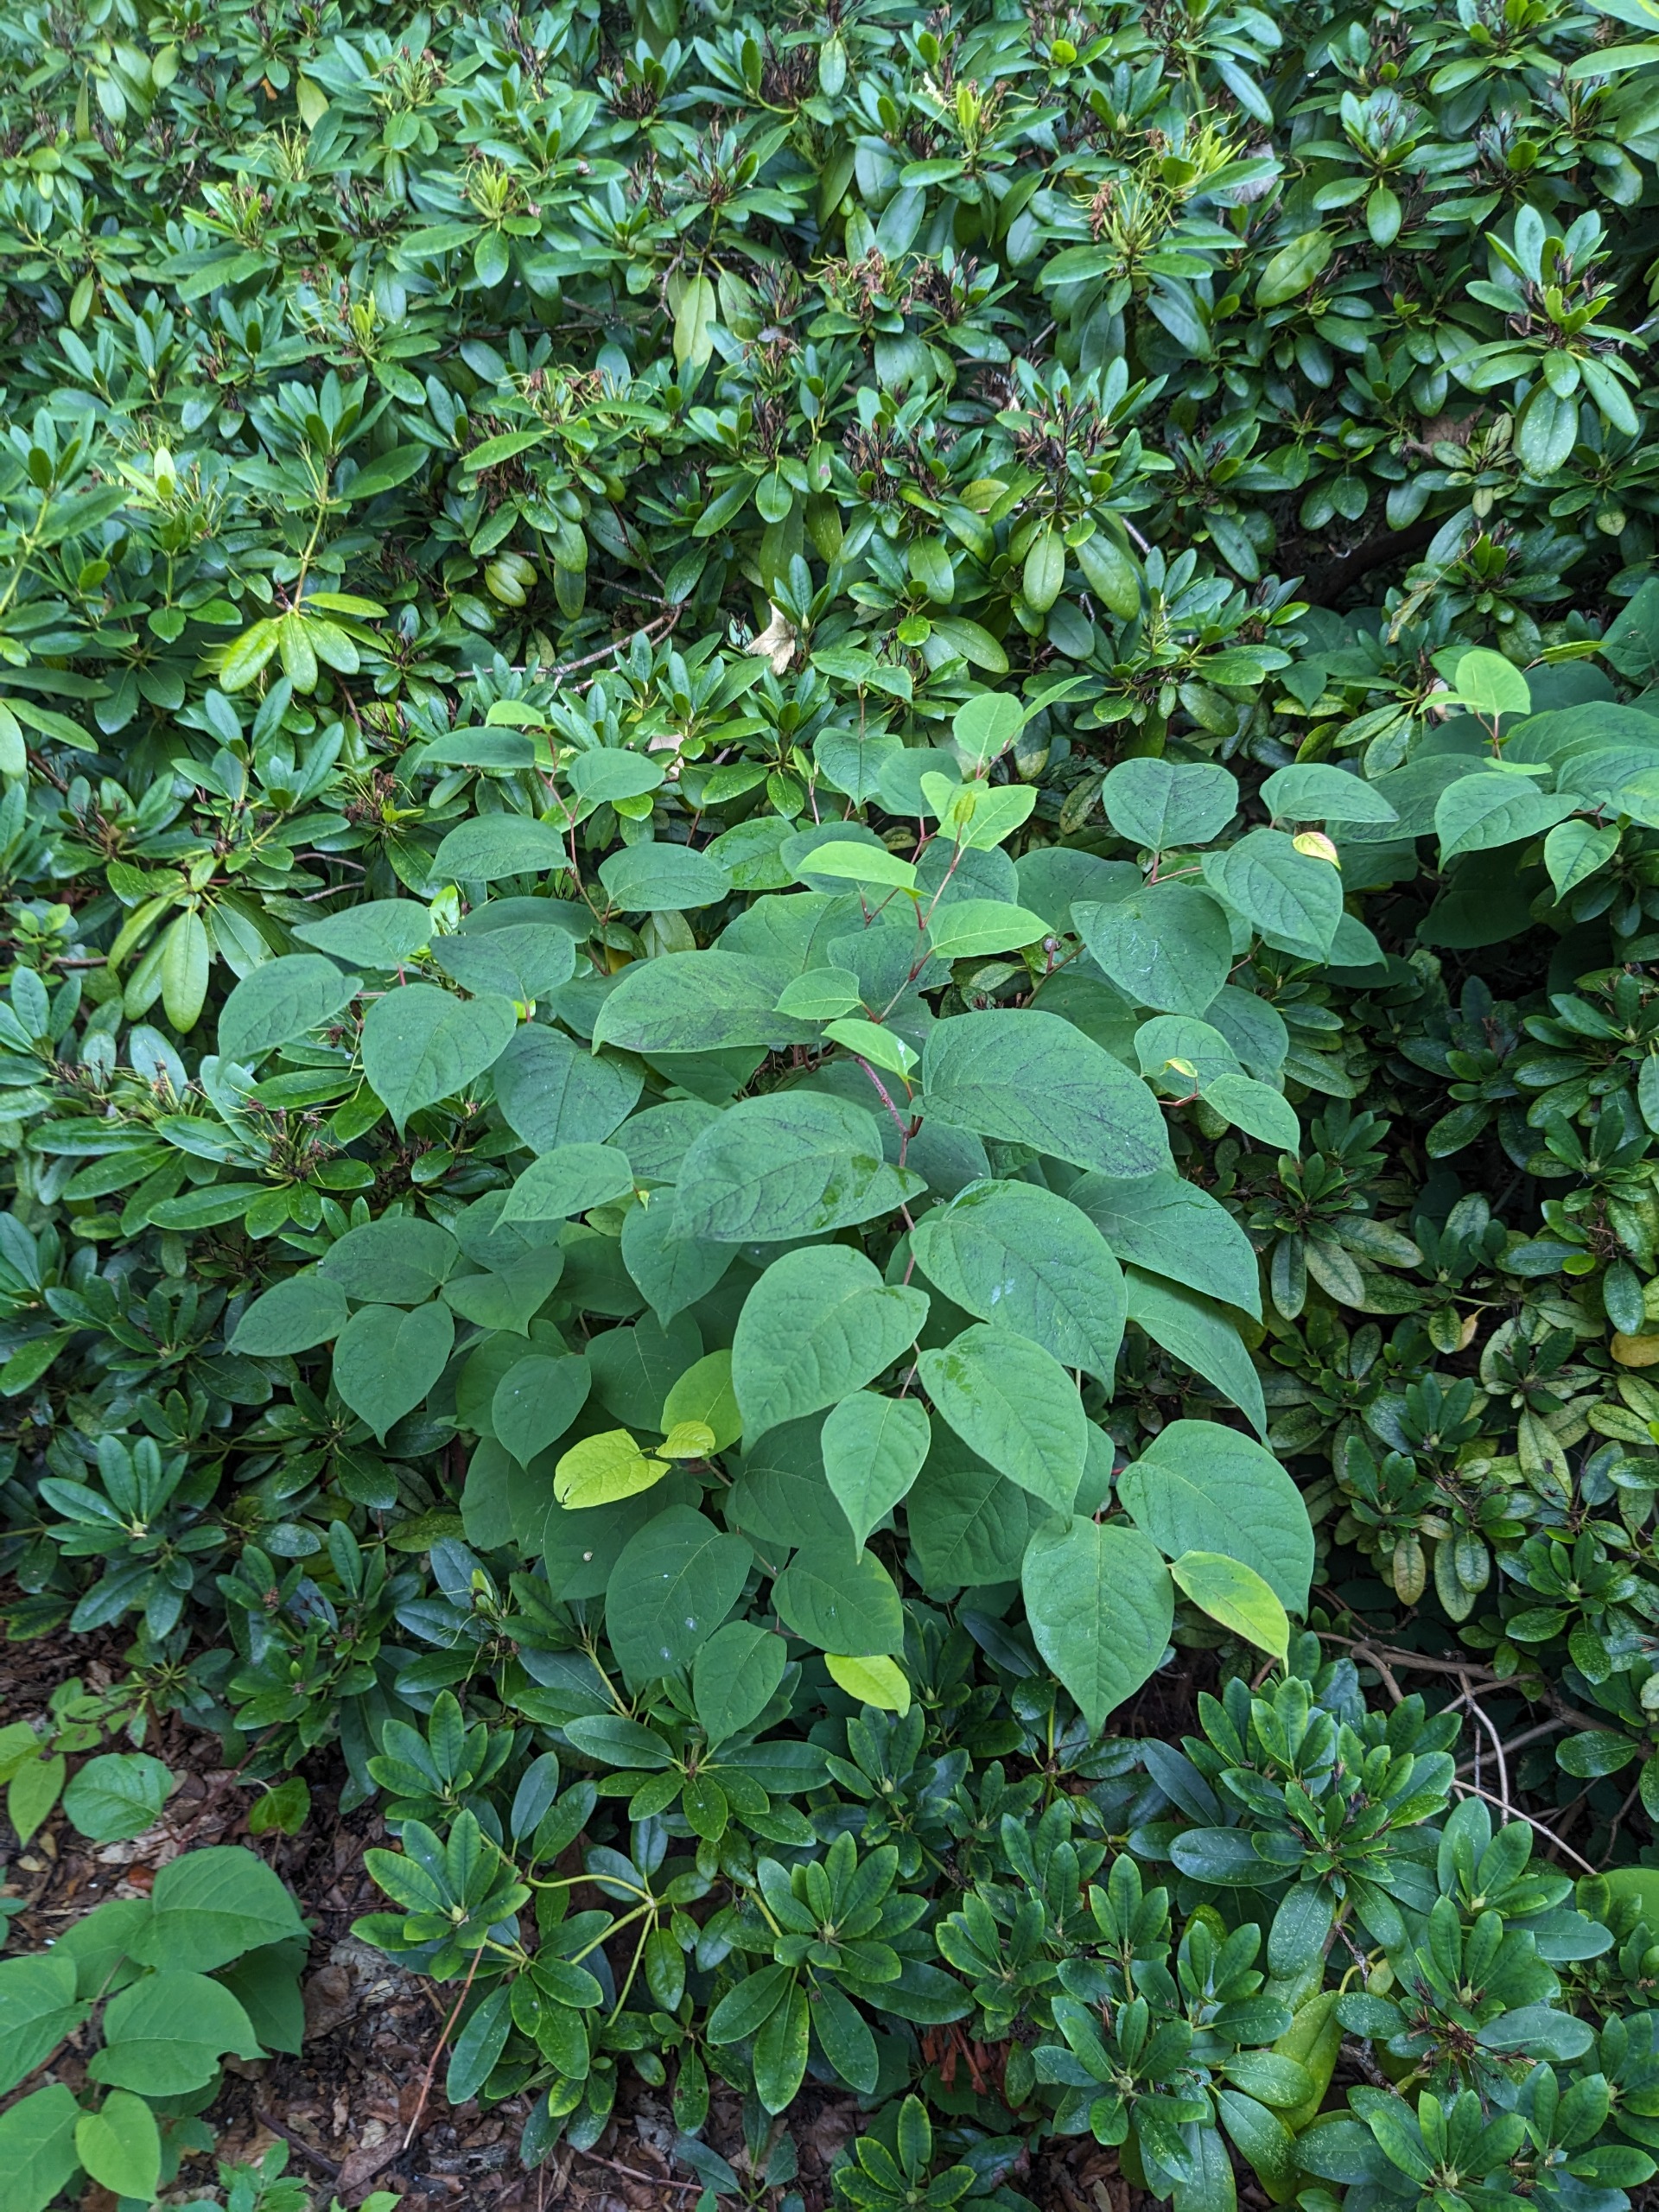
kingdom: Plantae
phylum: Tracheophyta
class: Magnoliopsida
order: Caryophyllales
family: Polygonaceae
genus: Reynoutria
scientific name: Reynoutria japonica
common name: Japan-pileurt
